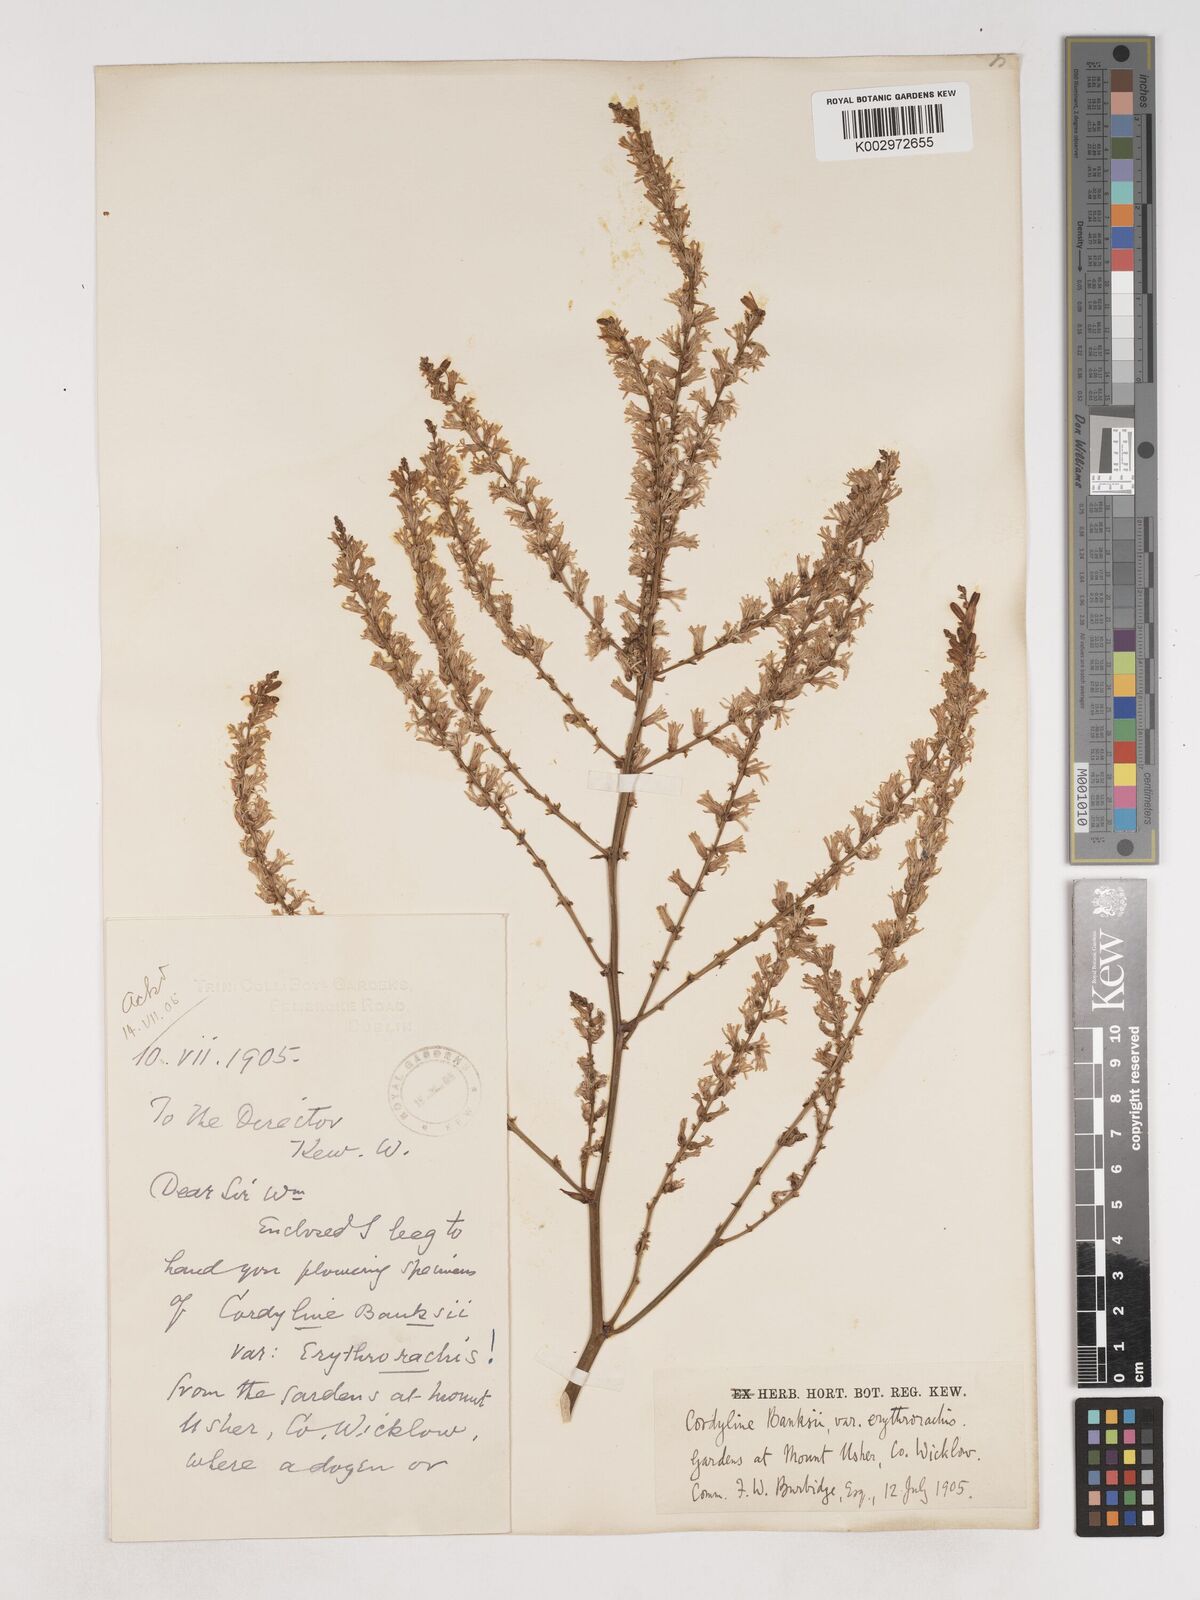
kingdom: Plantae
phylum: Tracheophyta
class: Liliopsida
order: Asparagales
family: Asparagaceae
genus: Cordyline
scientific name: Cordyline banksii
